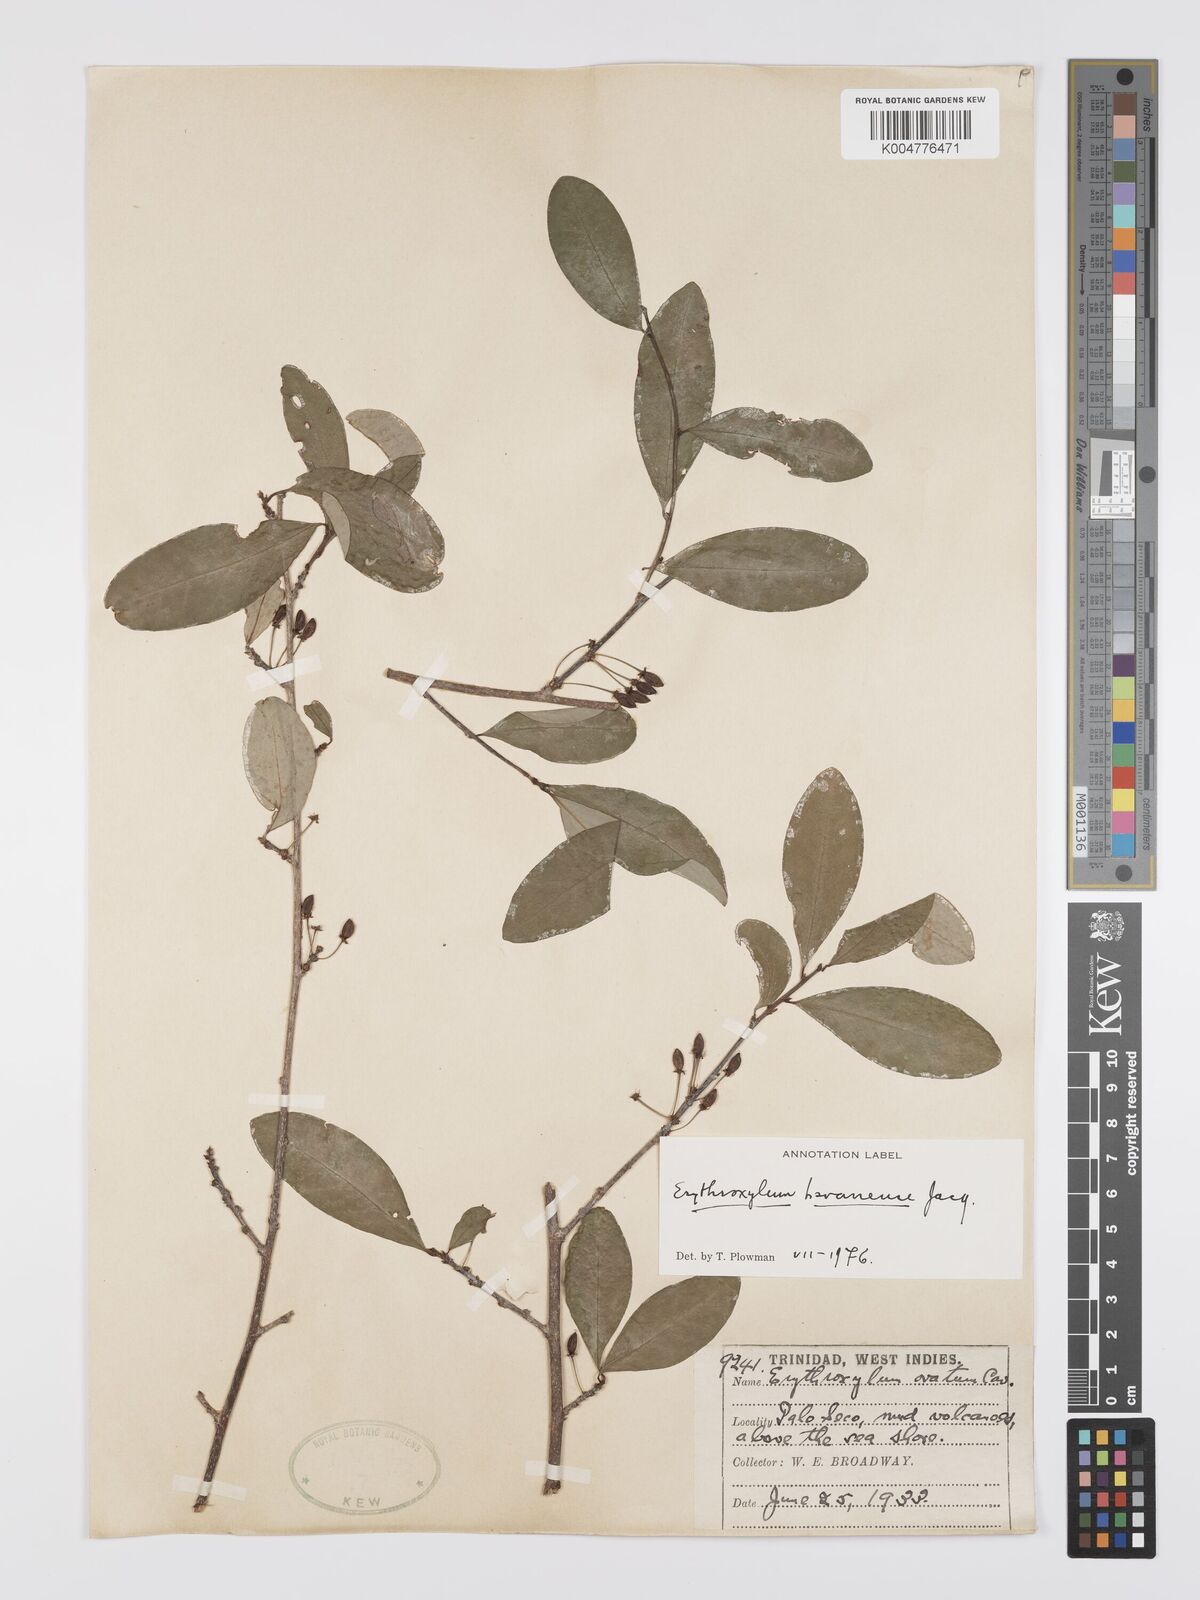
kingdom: Plantae
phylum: Tracheophyta
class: Magnoliopsida
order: Malpighiales
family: Erythroxylaceae
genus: Erythroxylum
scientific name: Erythroxylum
